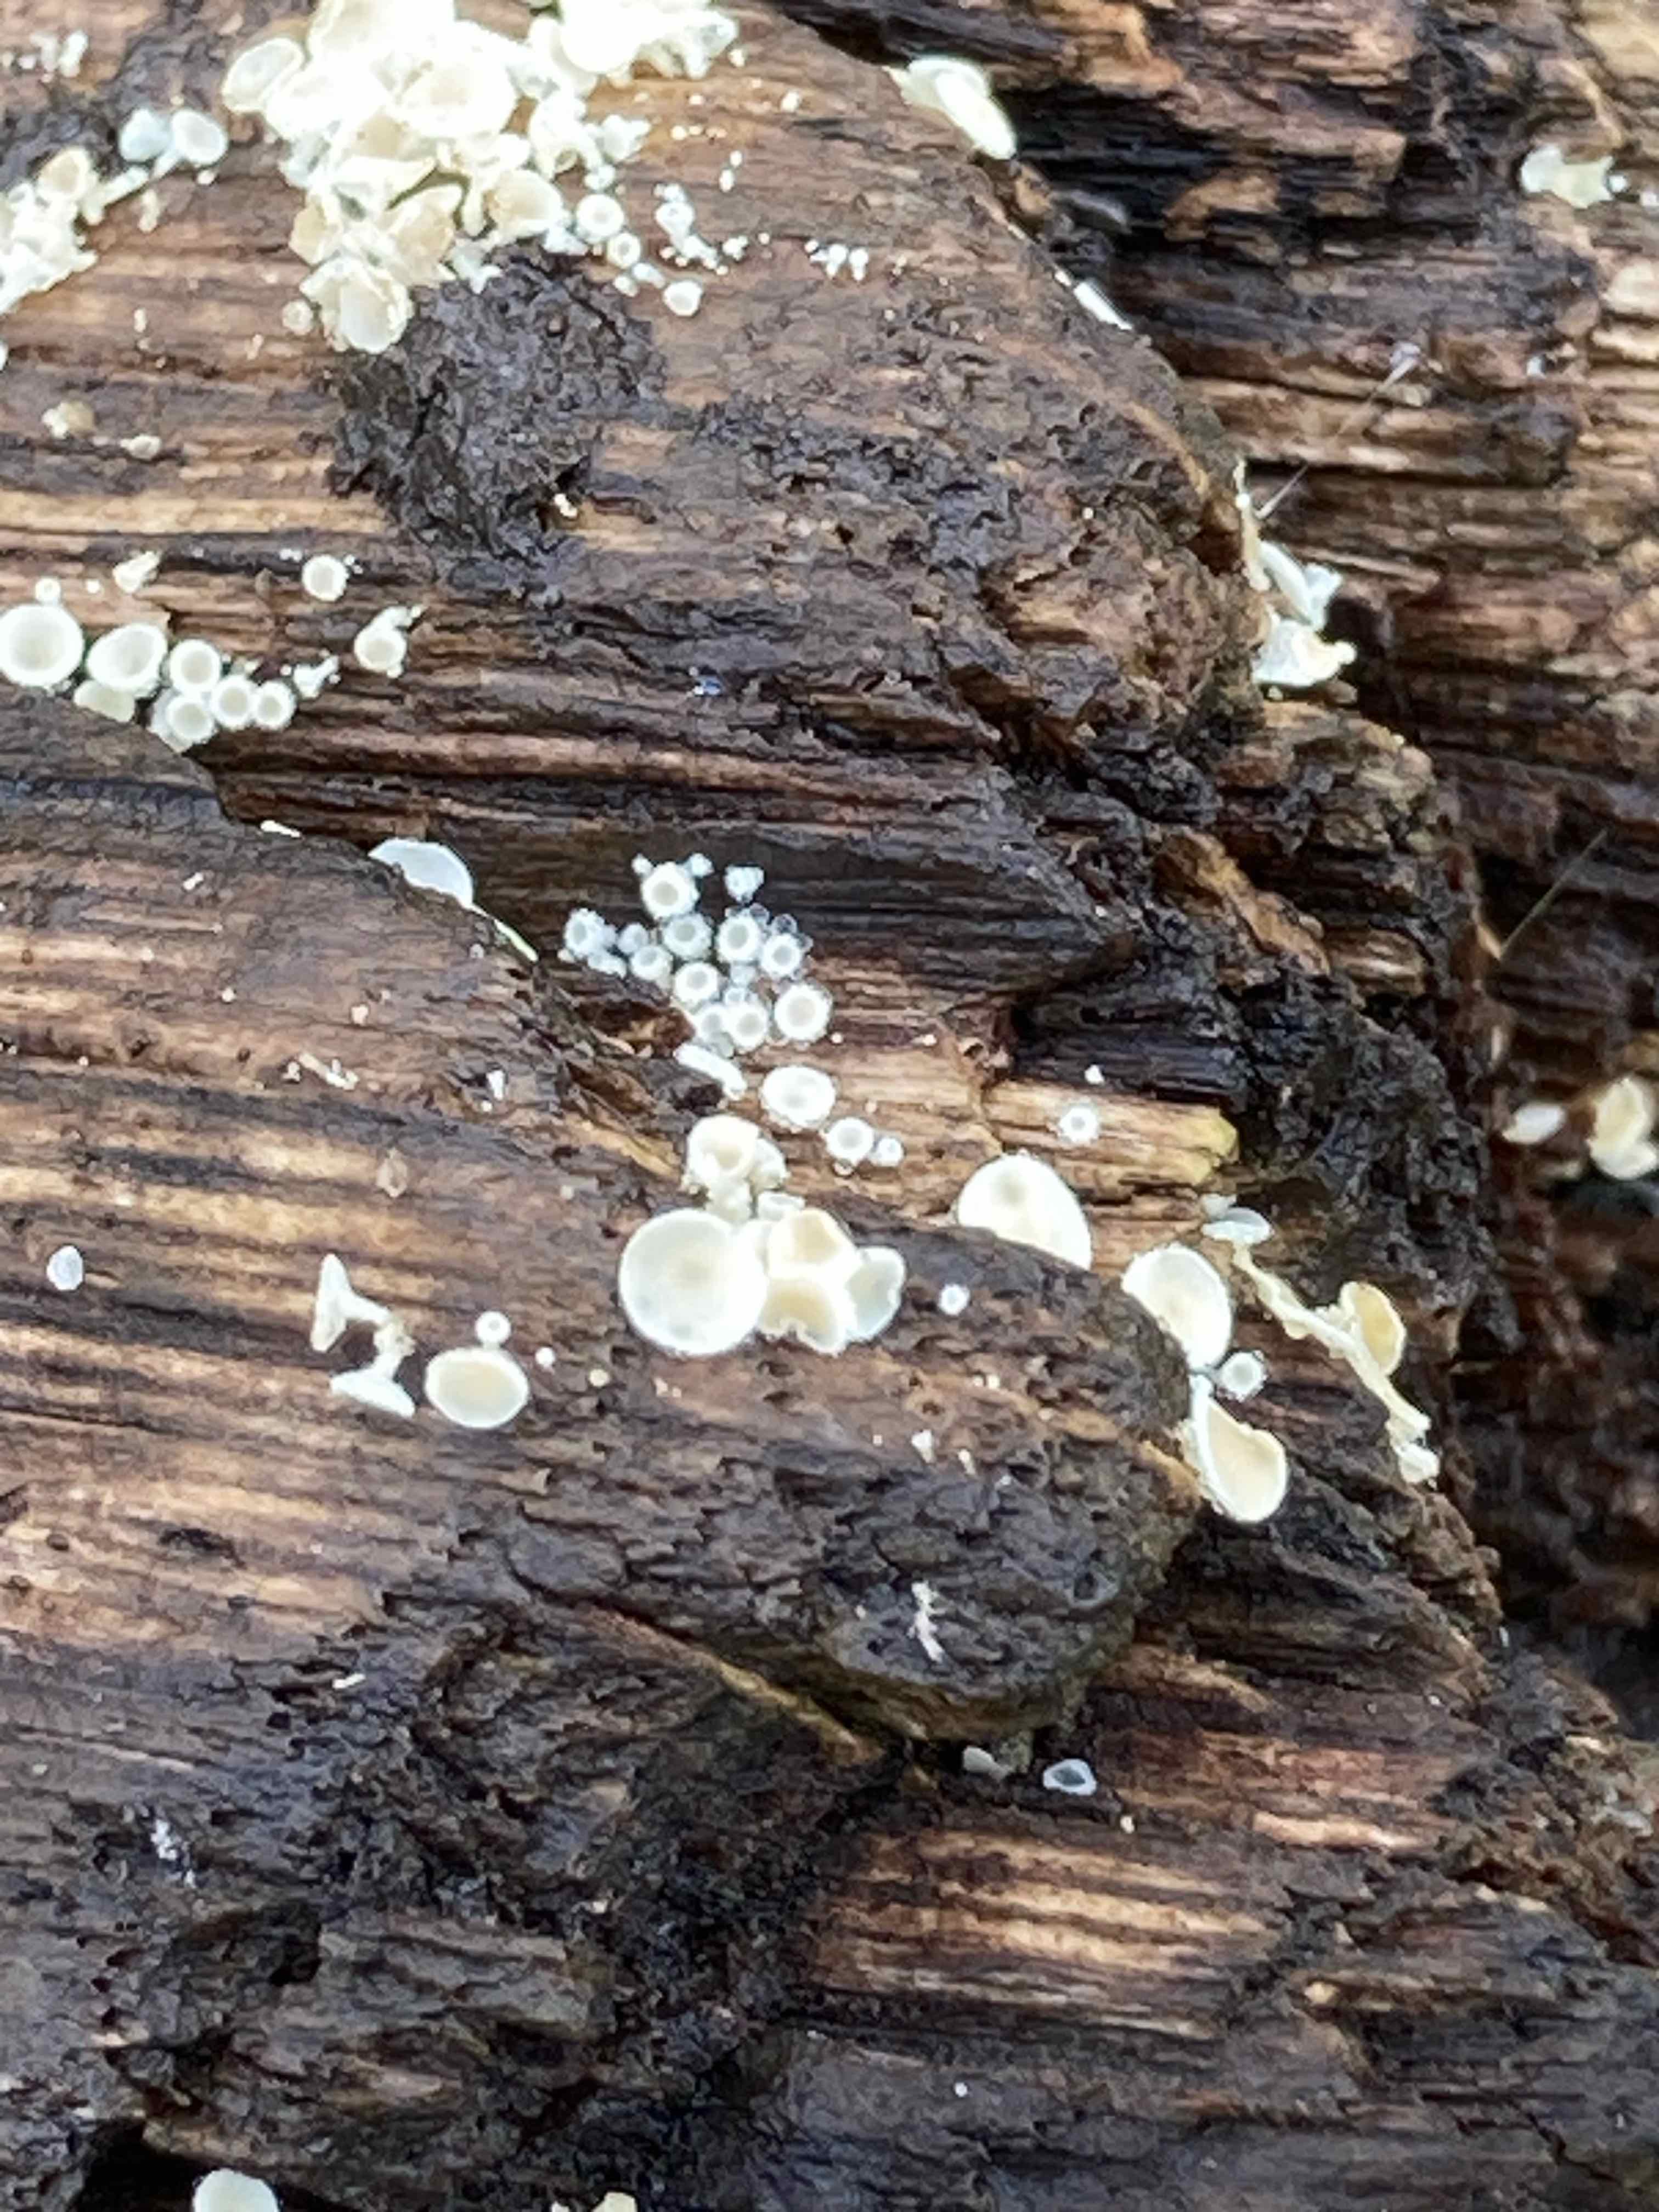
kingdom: Fungi
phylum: Ascomycota
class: Leotiomycetes
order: Helotiales
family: Lachnaceae
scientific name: Lachnaceae
